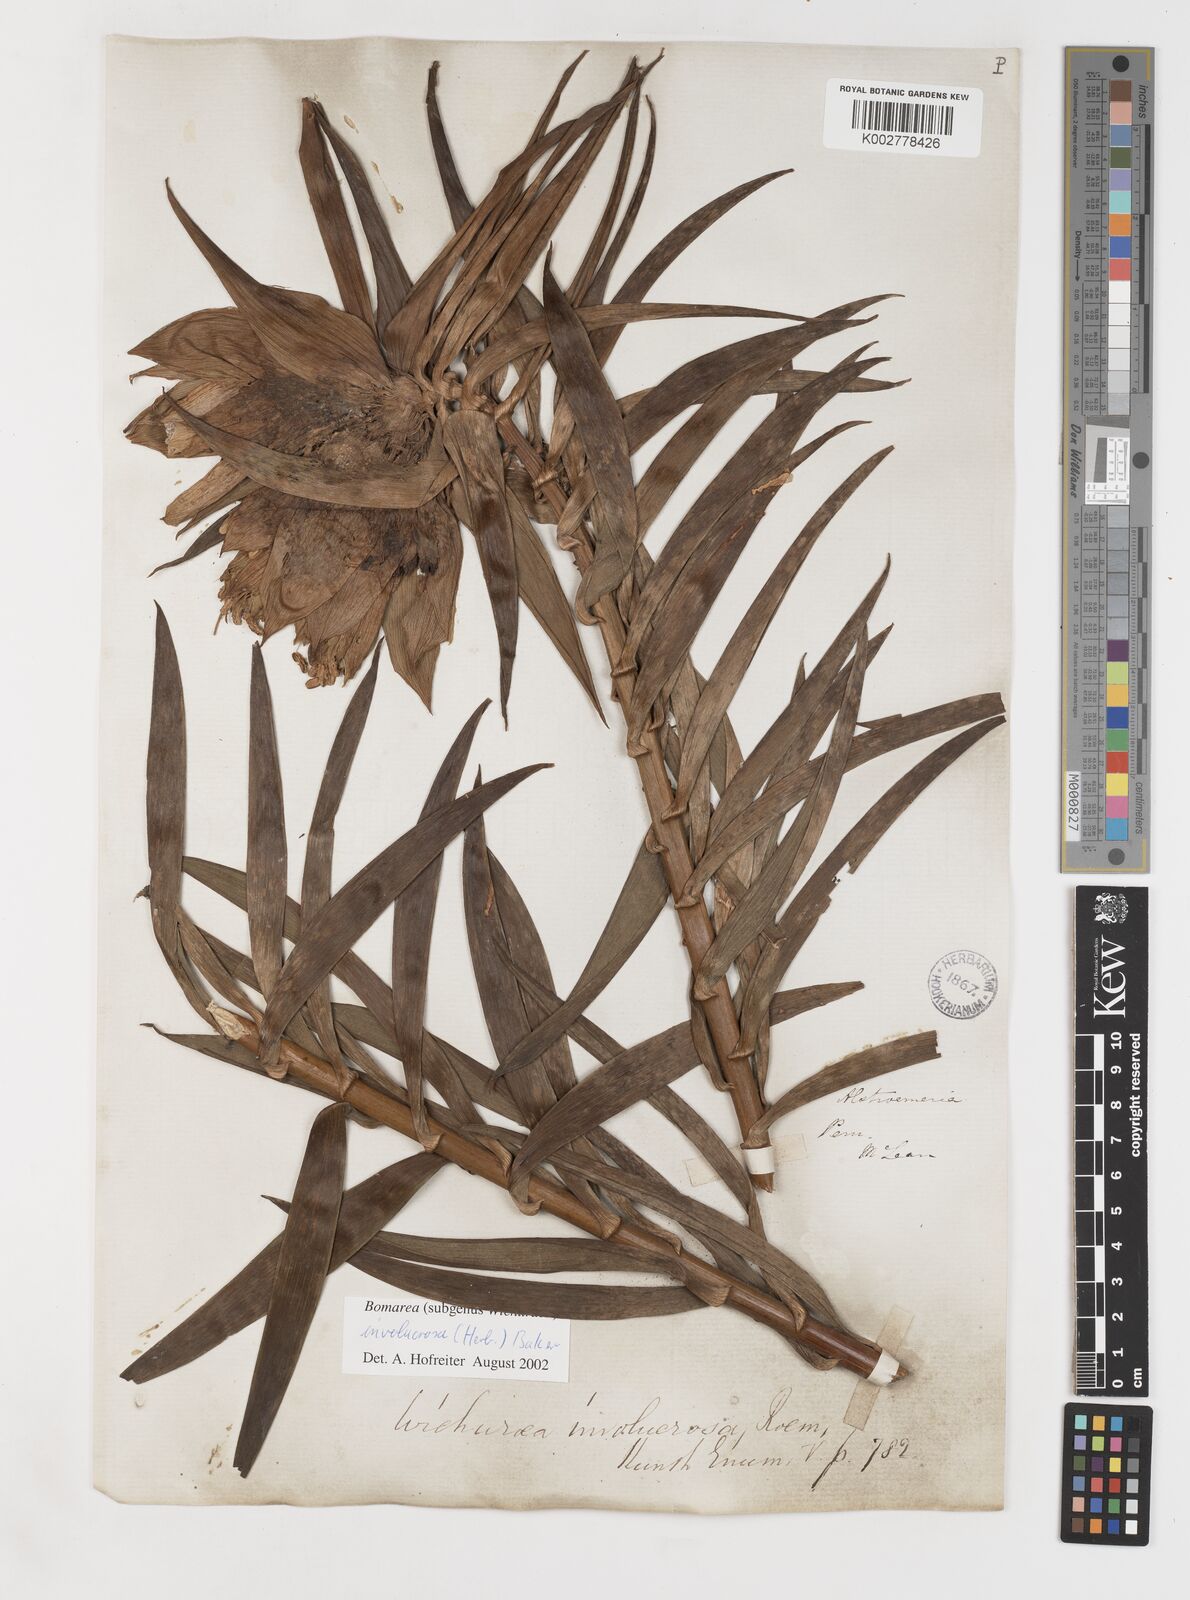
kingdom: Plantae
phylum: Tracheophyta
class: Liliopsida
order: Liliales
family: Alstroemeriaceae
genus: Bomarea
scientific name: Bomarea involucrosa
